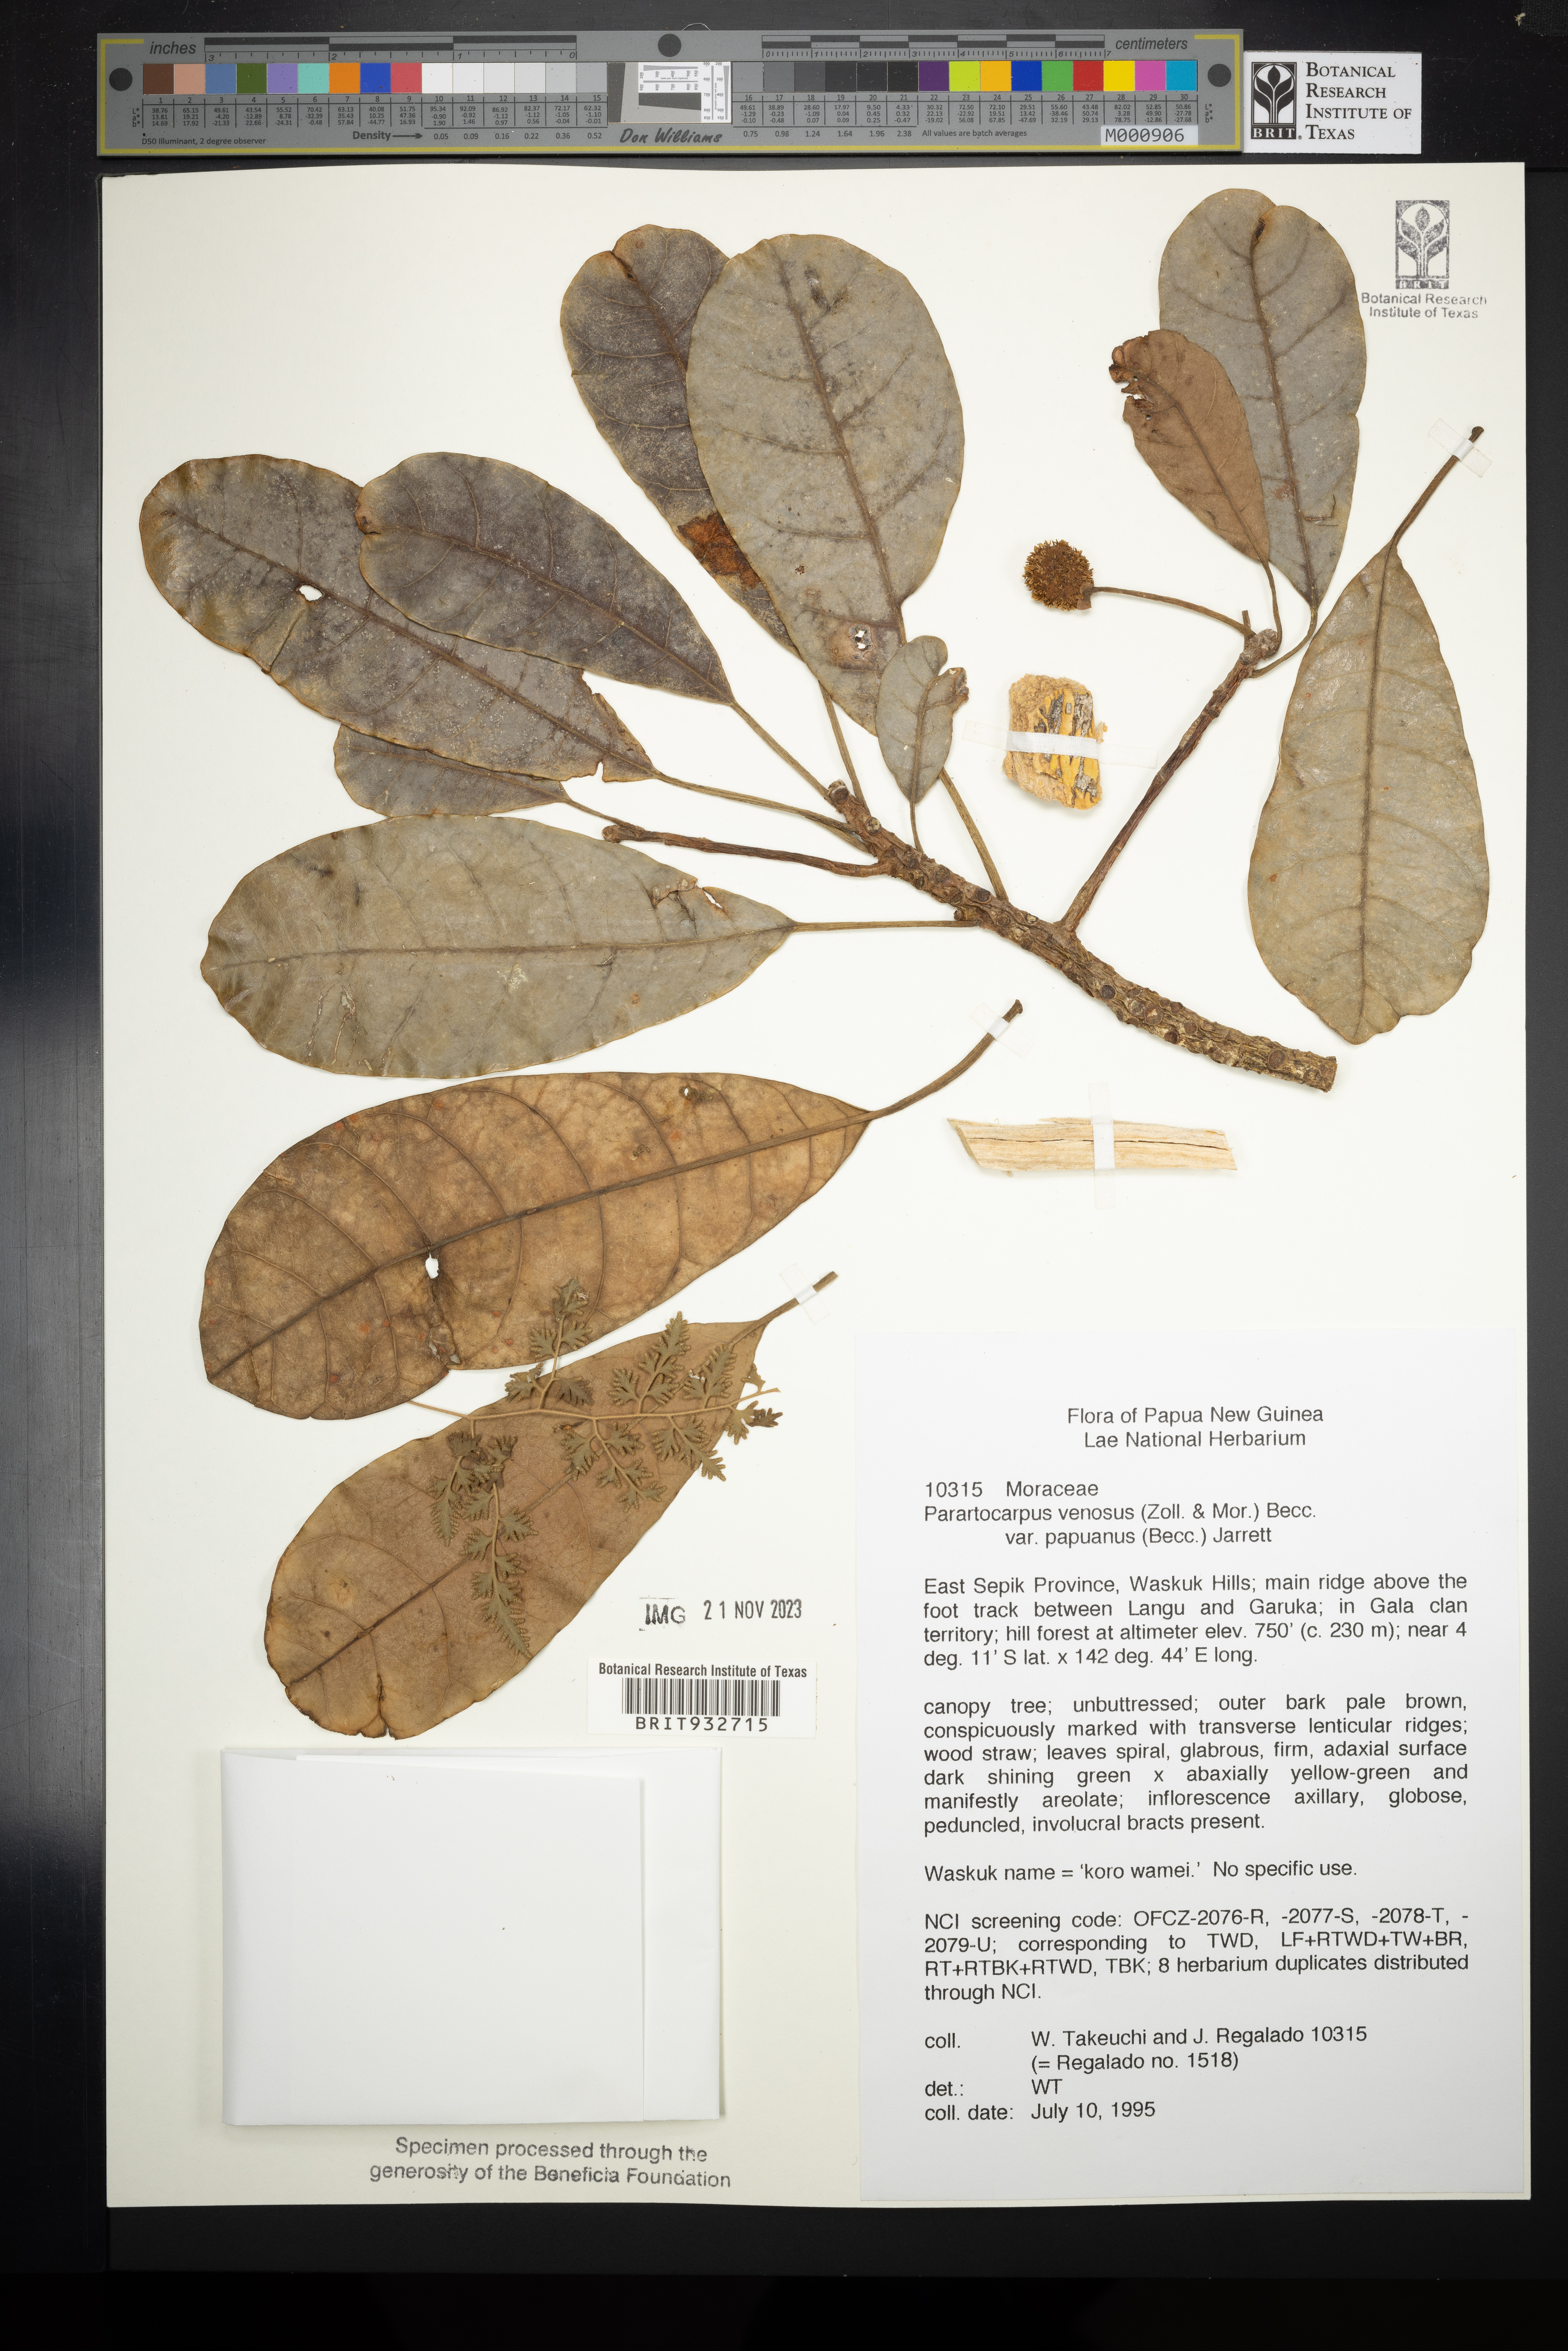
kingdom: Plantae
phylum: Tracheophyta
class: Magnoliopsida
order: Rosales
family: Moraceae
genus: Parartocarpus
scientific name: Parartocarpus
